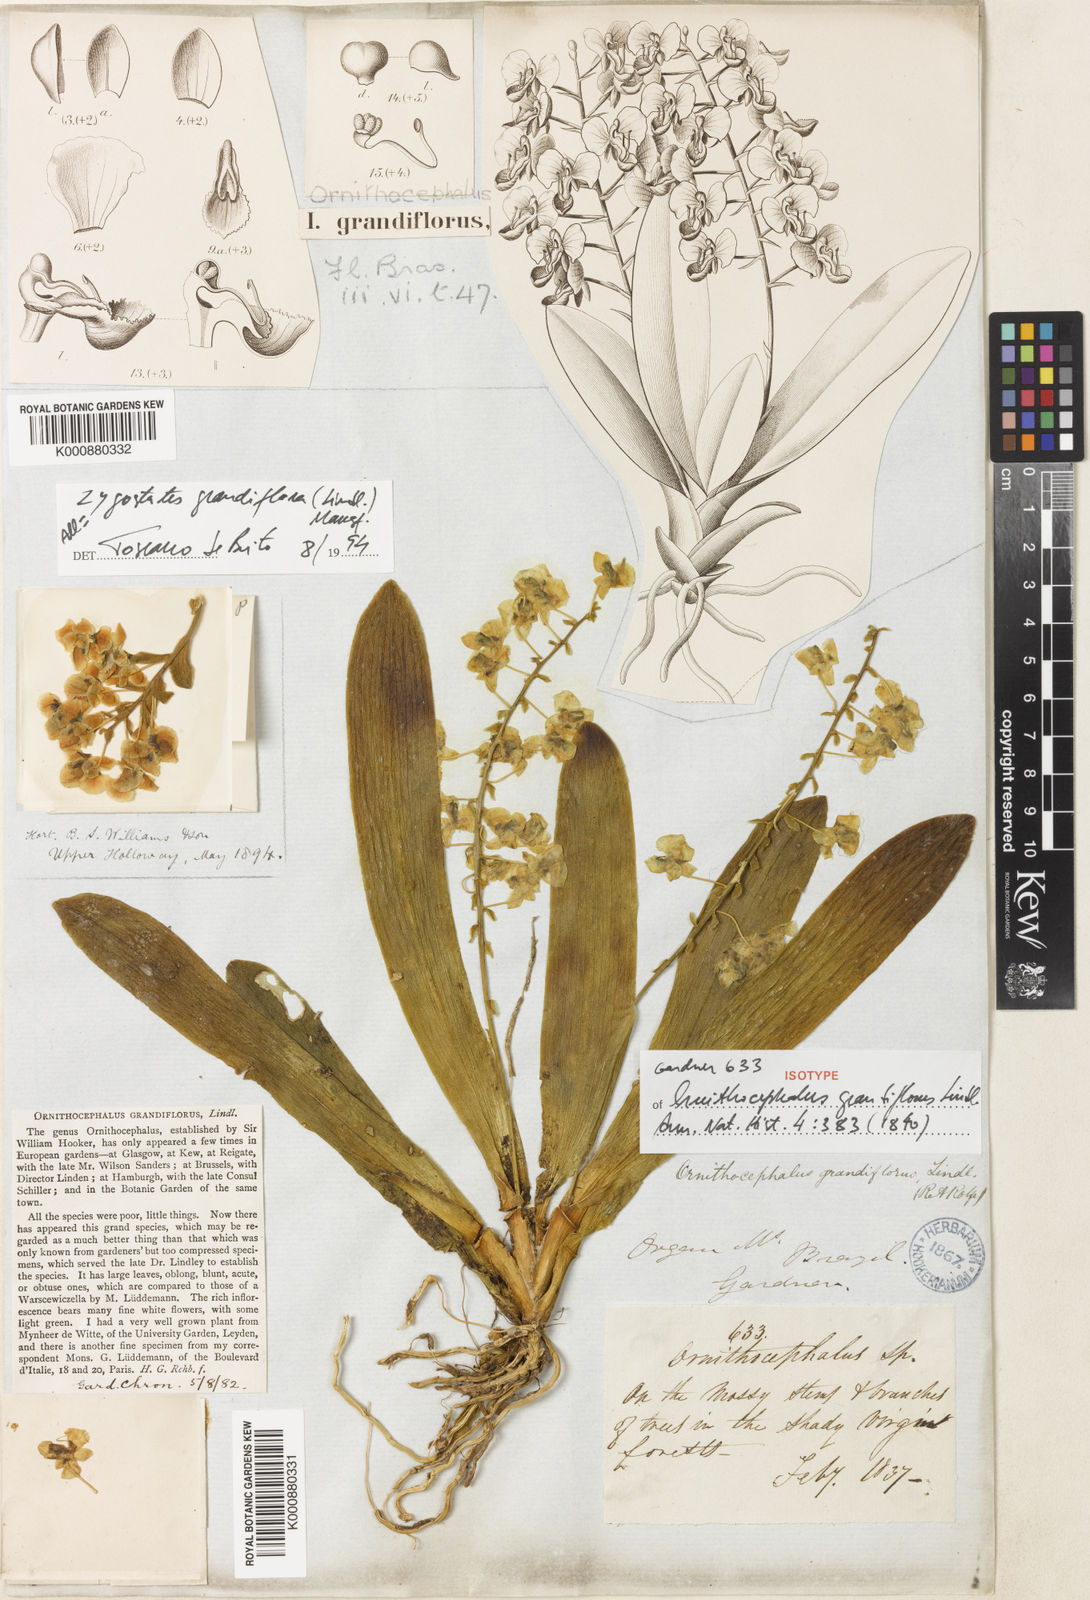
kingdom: Plantae
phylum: Tracheophyta
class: Liliopsida
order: Asparagales
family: Orchidaceae
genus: Zygostates
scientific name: Zygostates grandiflora
